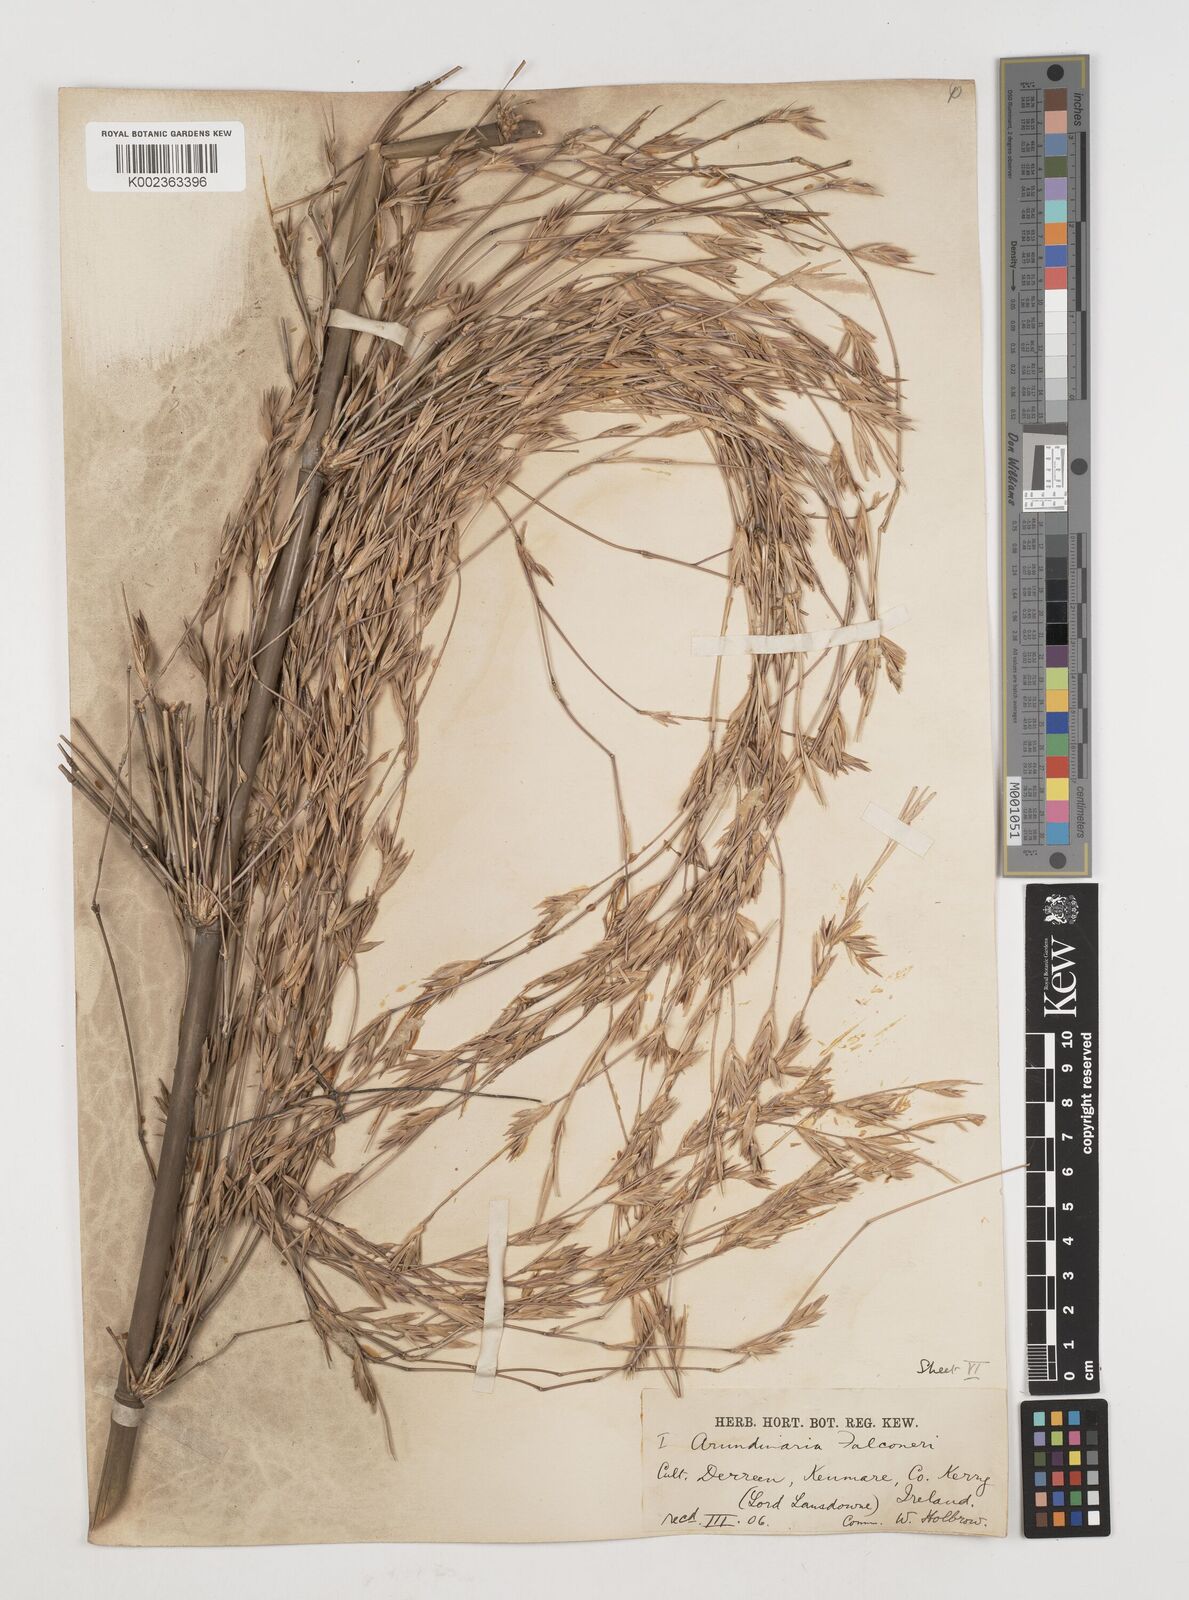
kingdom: Plantae
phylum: Tracheophyta
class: Liliopsida
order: Poales
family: Poaceae
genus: Himalayacalamus
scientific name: Himalayacalamus falconeri
